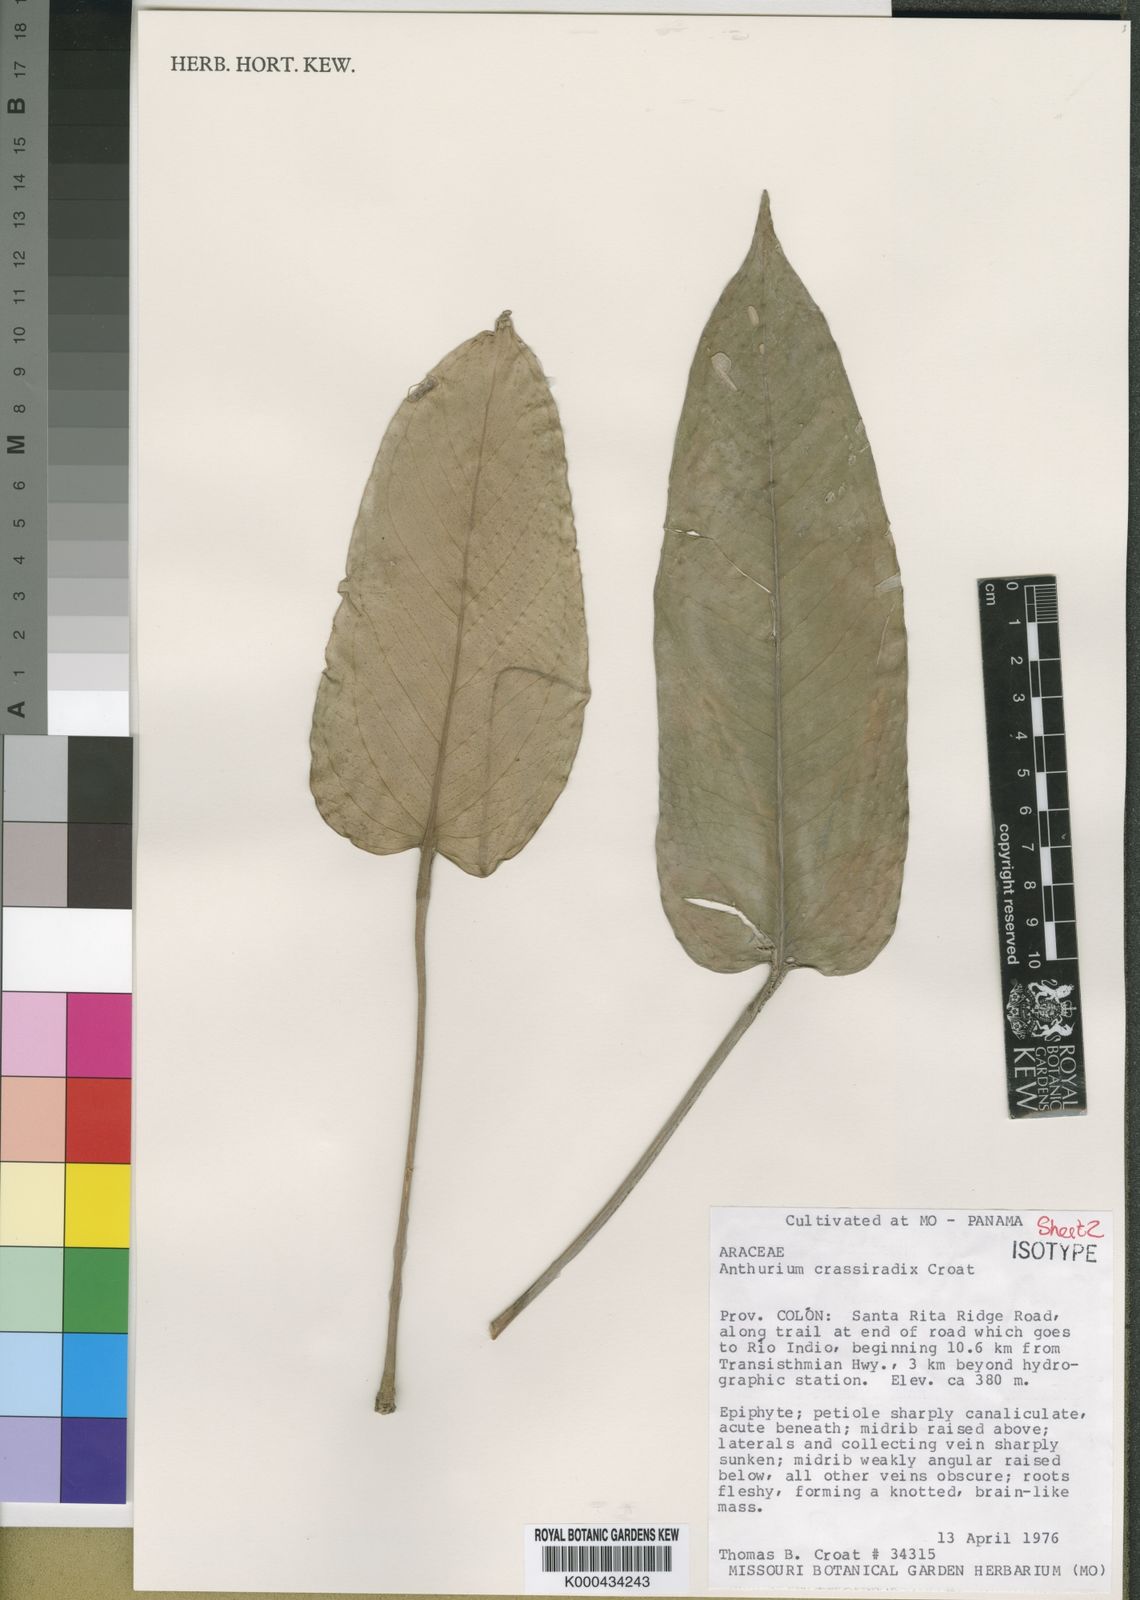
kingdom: Plantae
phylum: Tracheophyta
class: Liliopsida
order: Alismatales
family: Araceae
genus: Anthurium
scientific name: Anthurium crassiradix
